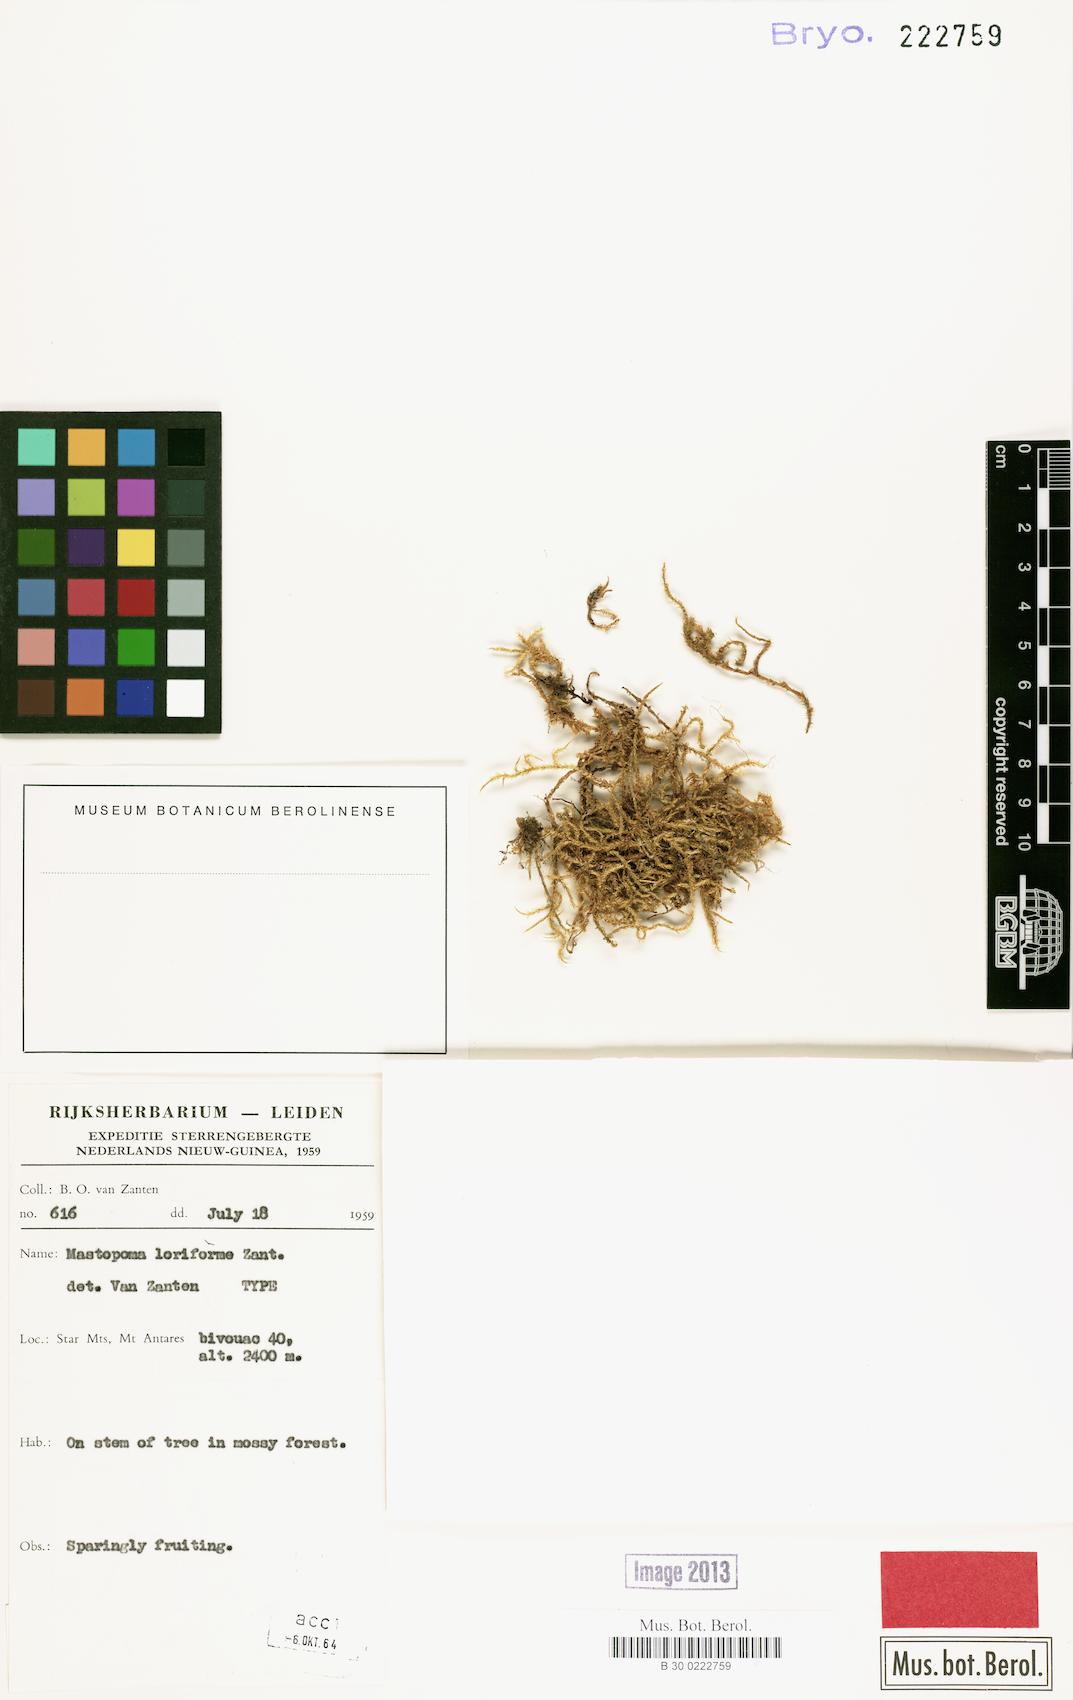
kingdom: Plantae
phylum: Bryophyta
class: Bryopsida
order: Hypnales
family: Pylaisiadelphaceae
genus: Mastopoma
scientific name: Mastopoma armitii
